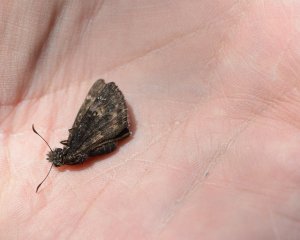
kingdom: Animalia
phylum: Arthropoda
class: Insecta
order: Lepidoptera
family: Hesperiidae
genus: Erynnis
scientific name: Erynnis funeralis
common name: Funereal Duskywing
